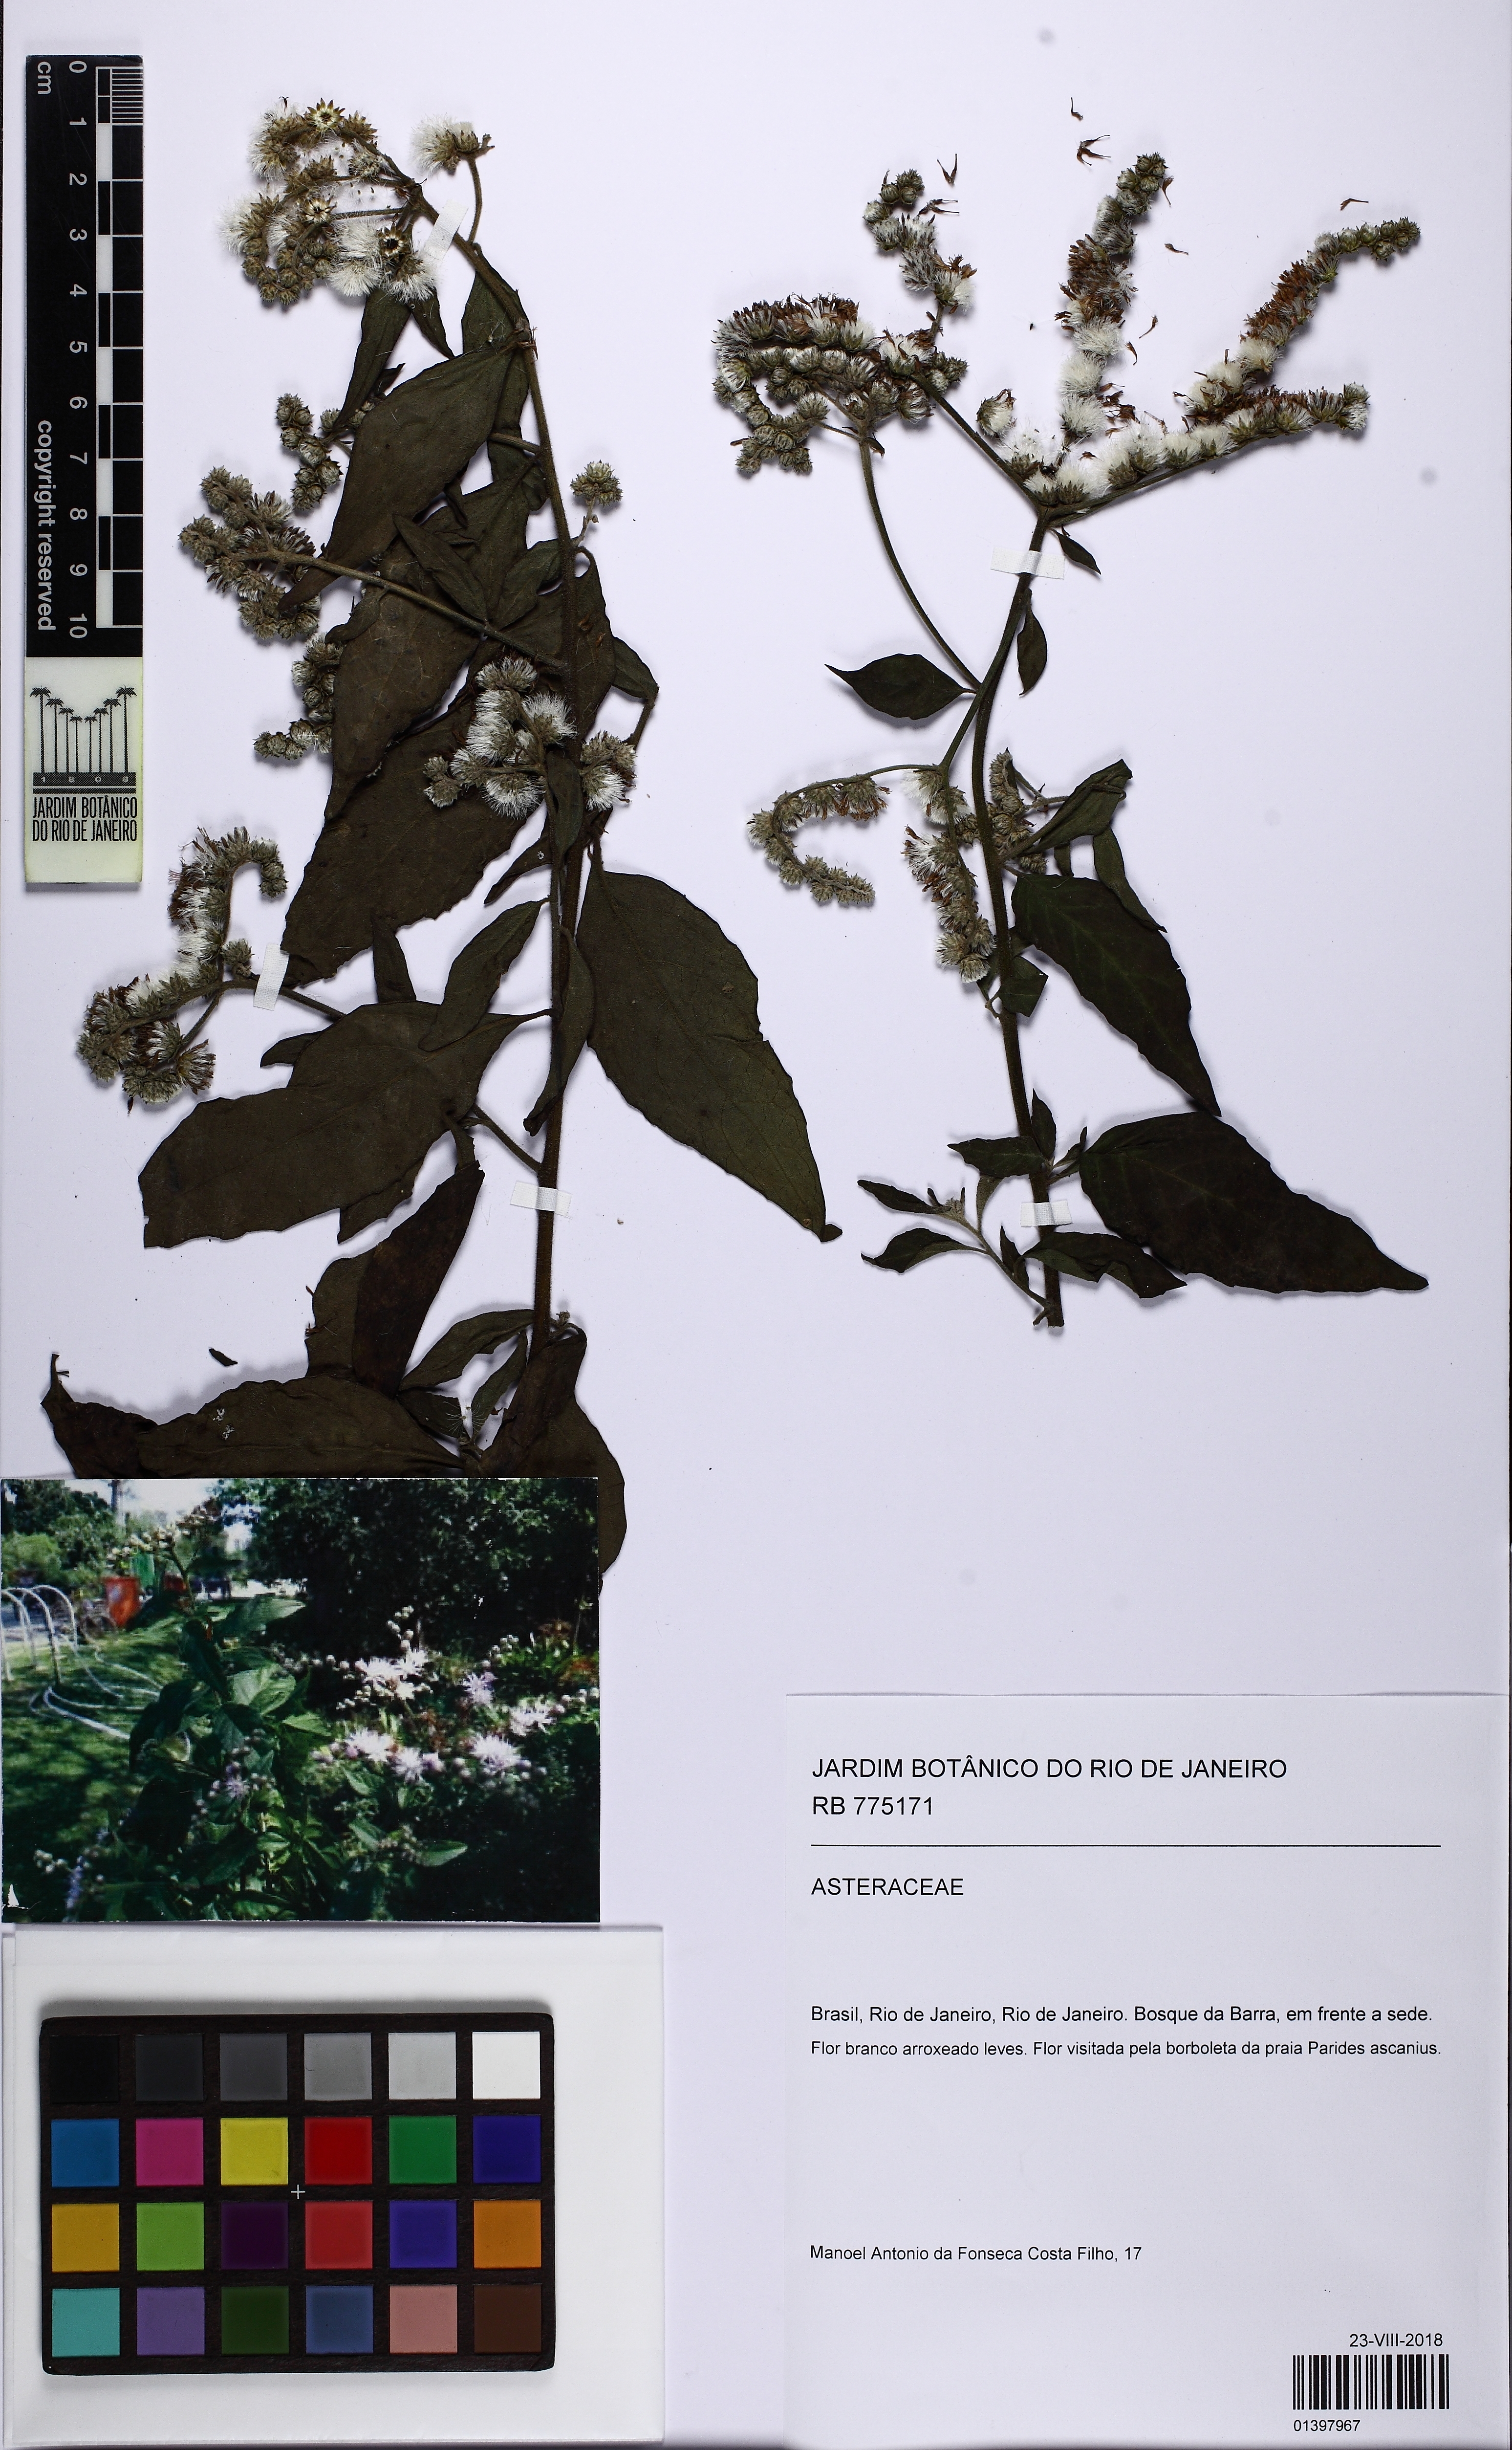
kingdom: Plantae
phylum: Tracheophyta
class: Magnoliopsida
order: Asterales
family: Asteraceae
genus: Cyrtocymura
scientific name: Cyrtocymura
